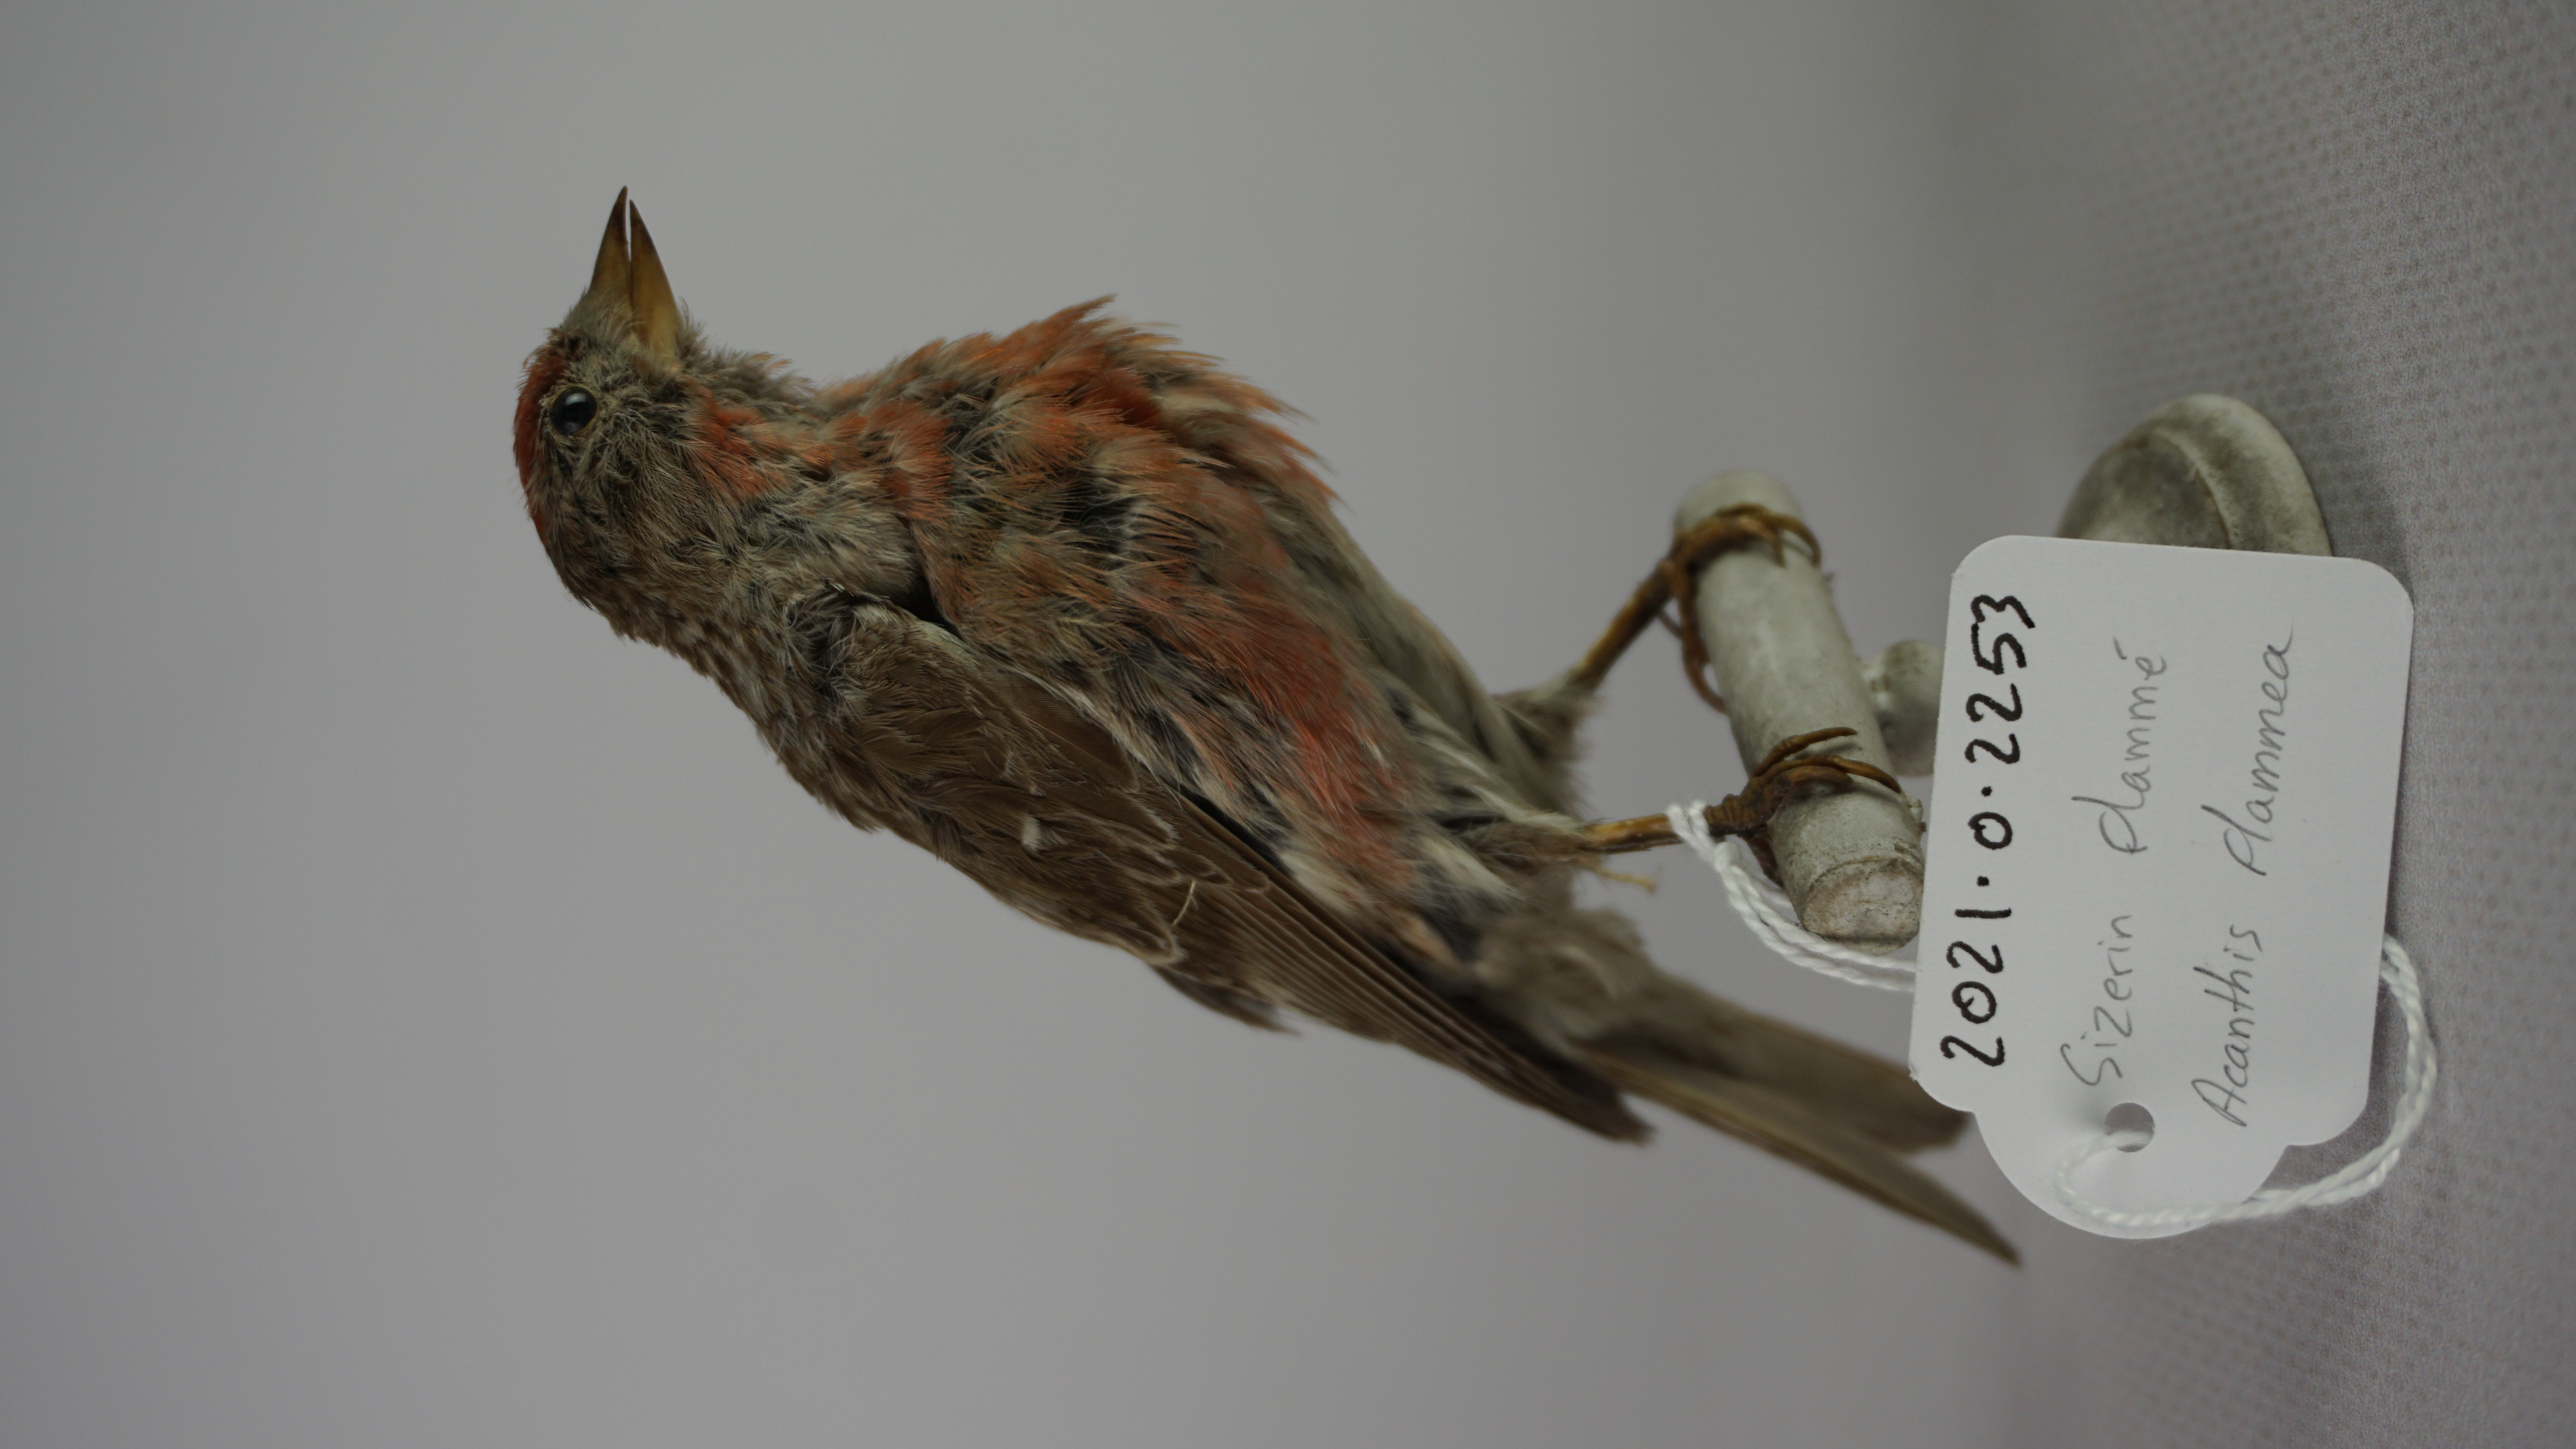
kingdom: Animalia
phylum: Chordata
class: Aves
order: Passeriformes
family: Fringillidae
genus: Acanthis
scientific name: Acanthis flammea
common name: Common redpoll
